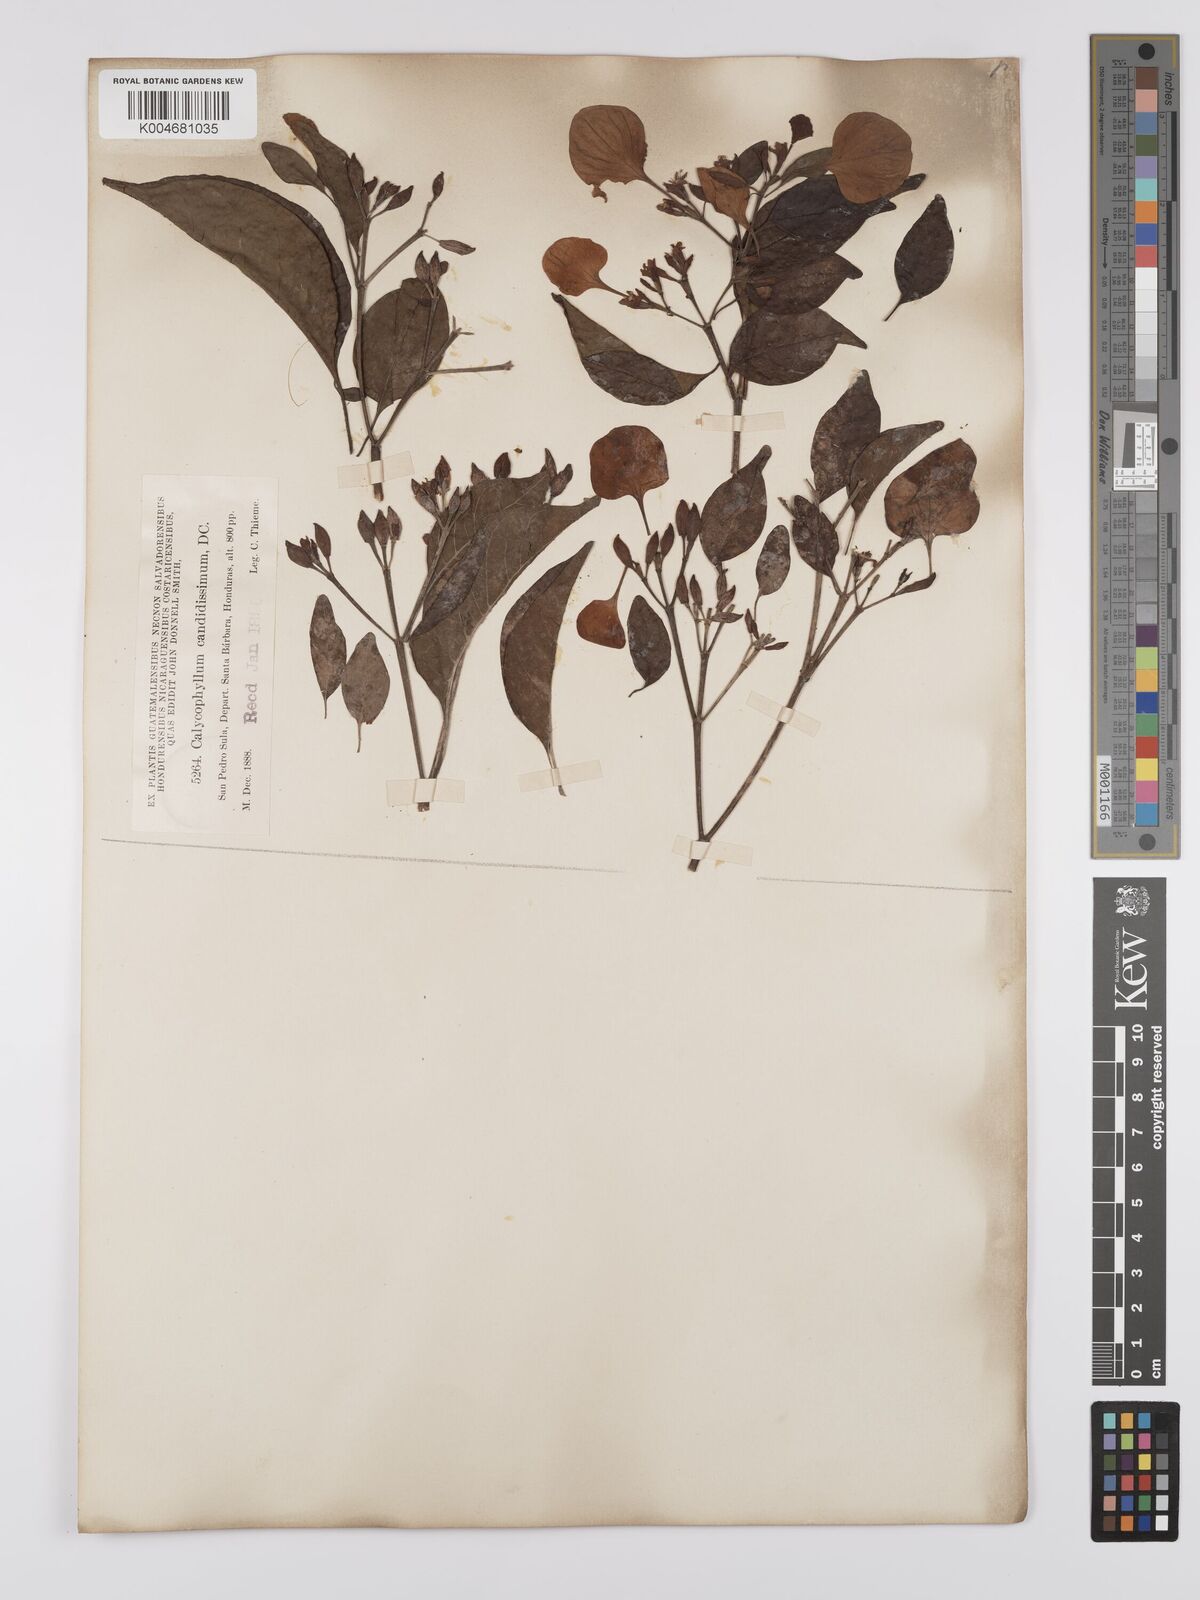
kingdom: Plantae
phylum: Tracheophyta
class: Magnoliopsida
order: Gentianales
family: Rubiaceae
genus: Calycophyllum
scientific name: Calycophyllum candidissimum
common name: Dagame
